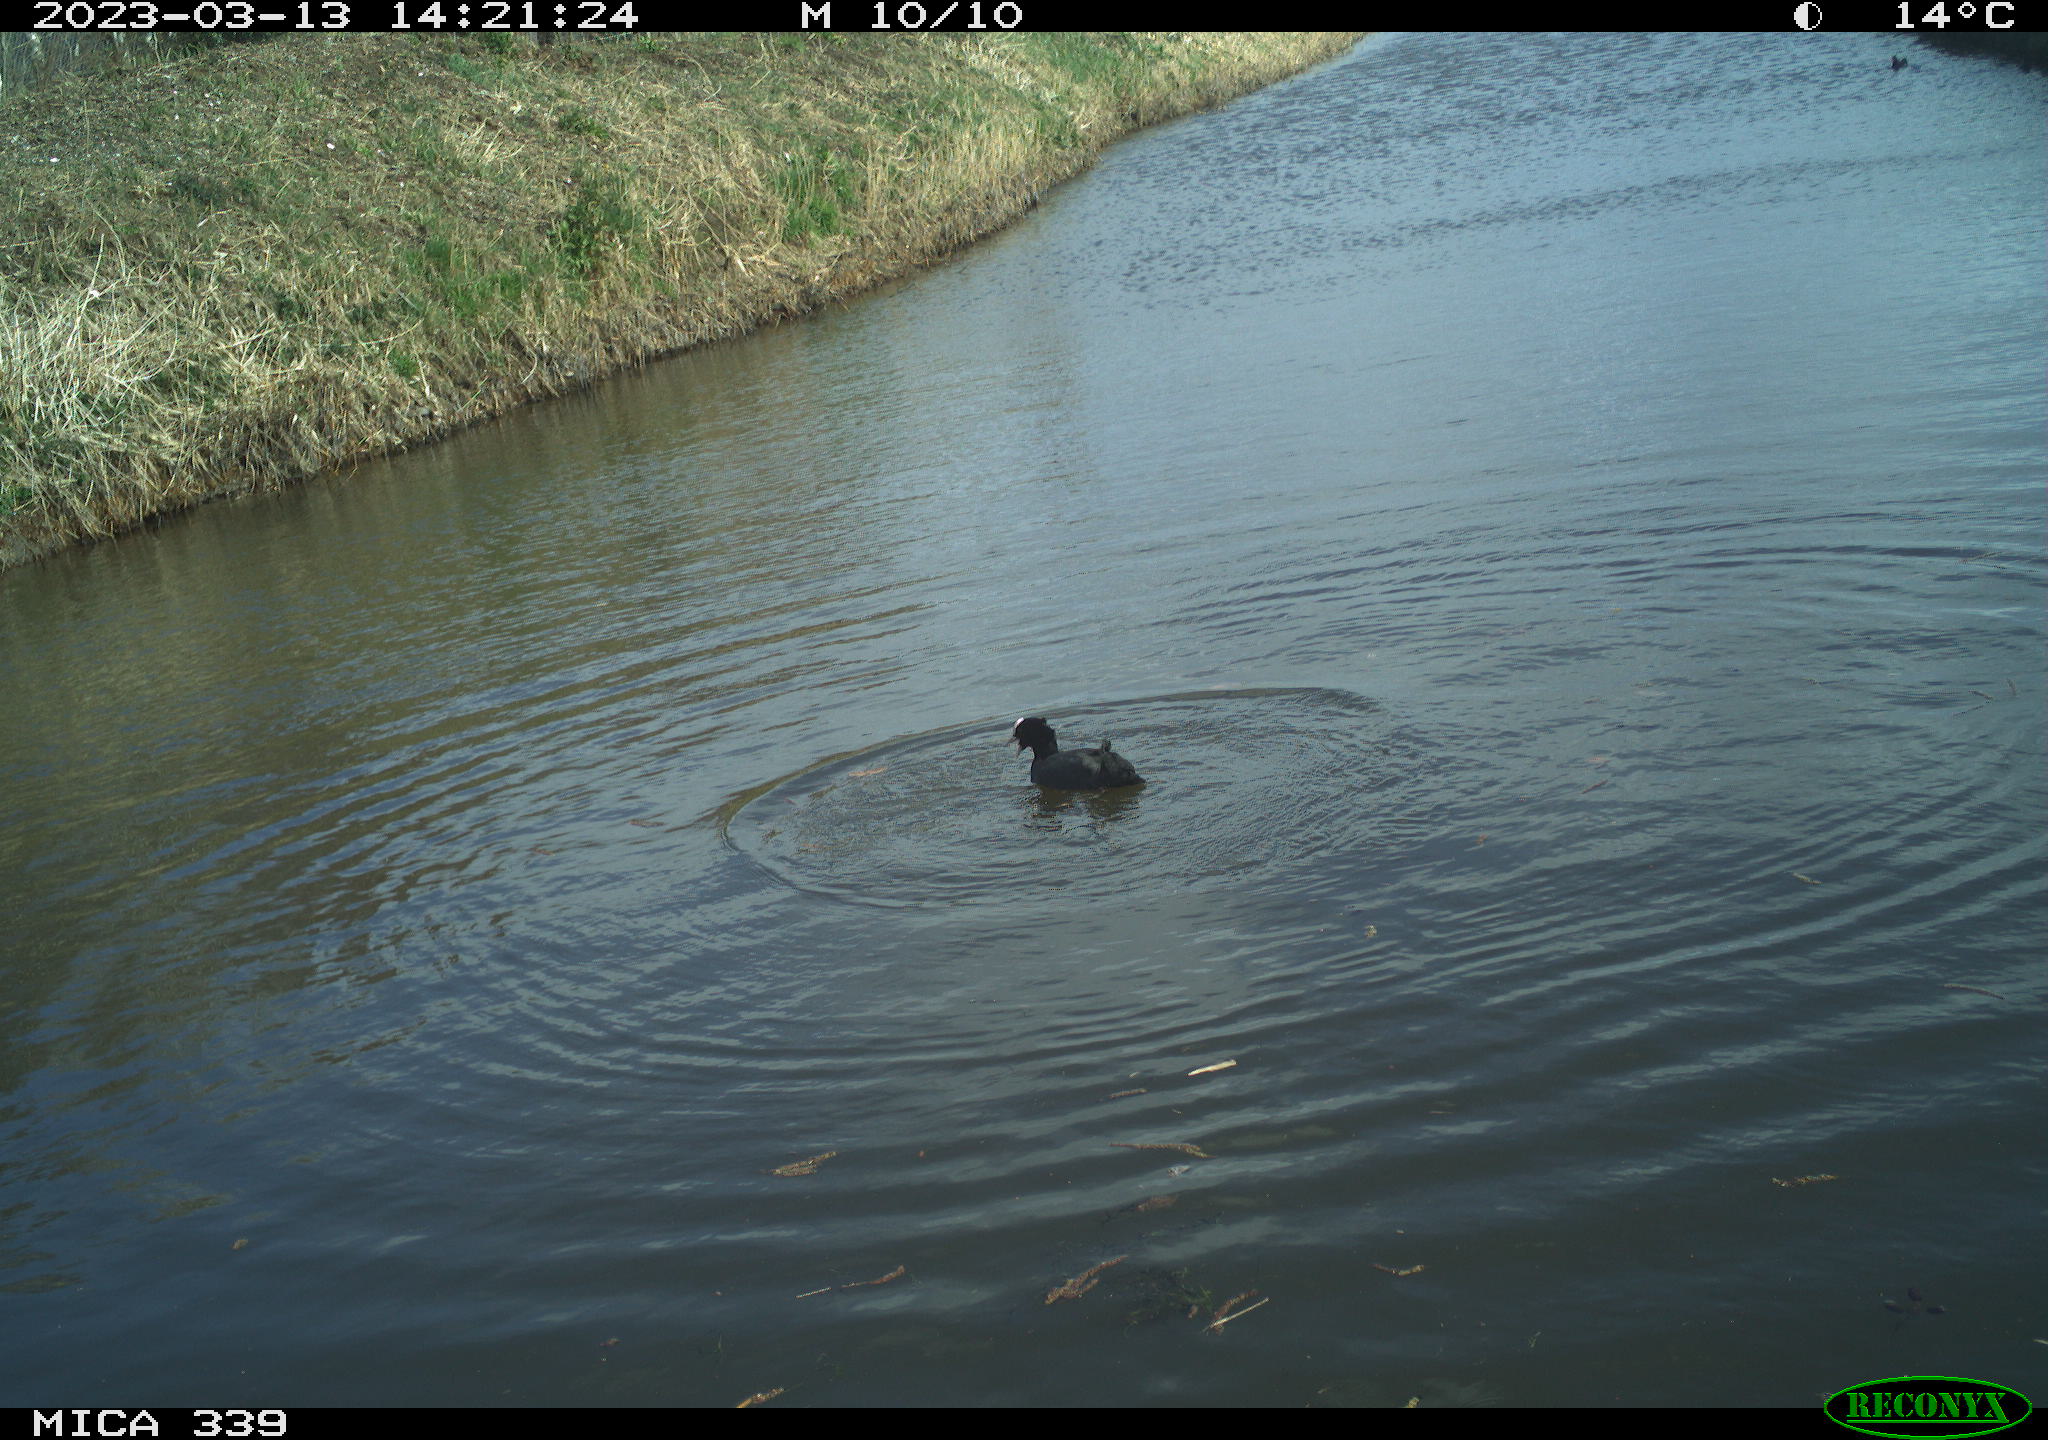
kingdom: Animalia
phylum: Chordata
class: Aves
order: Gruiformes
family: Rallidae
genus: Fulica
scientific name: Fulica atra
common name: Eurasian coot
